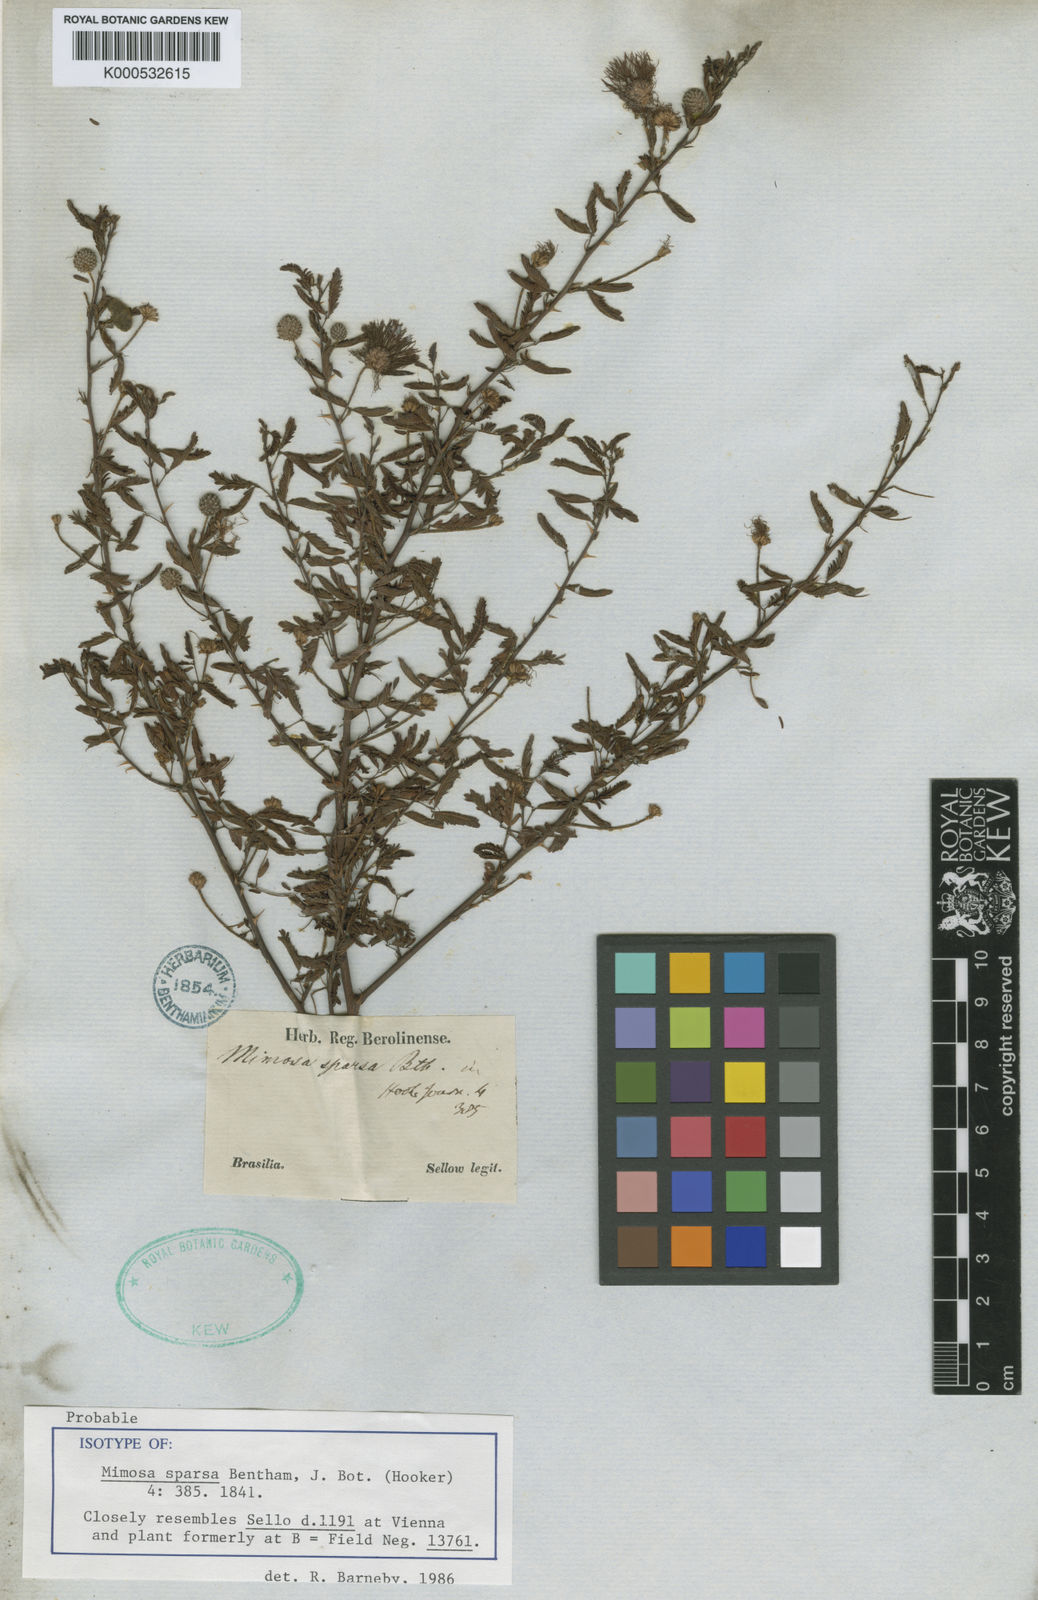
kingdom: Plantae
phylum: Tracheophyta
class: Magnoliopsida
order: Fabales
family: Fabaceae
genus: Mimosa
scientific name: Mimosa sparsa
